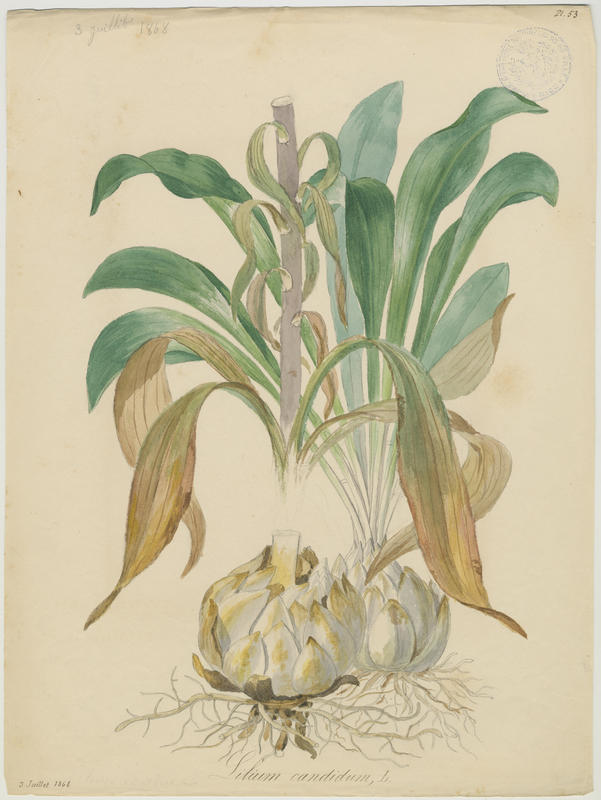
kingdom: Plantae
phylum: Tracheophyta
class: Liliopsida
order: Liliales
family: Liliaceae
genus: Lilium
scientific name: Lilium candidum
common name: Madonna lily
